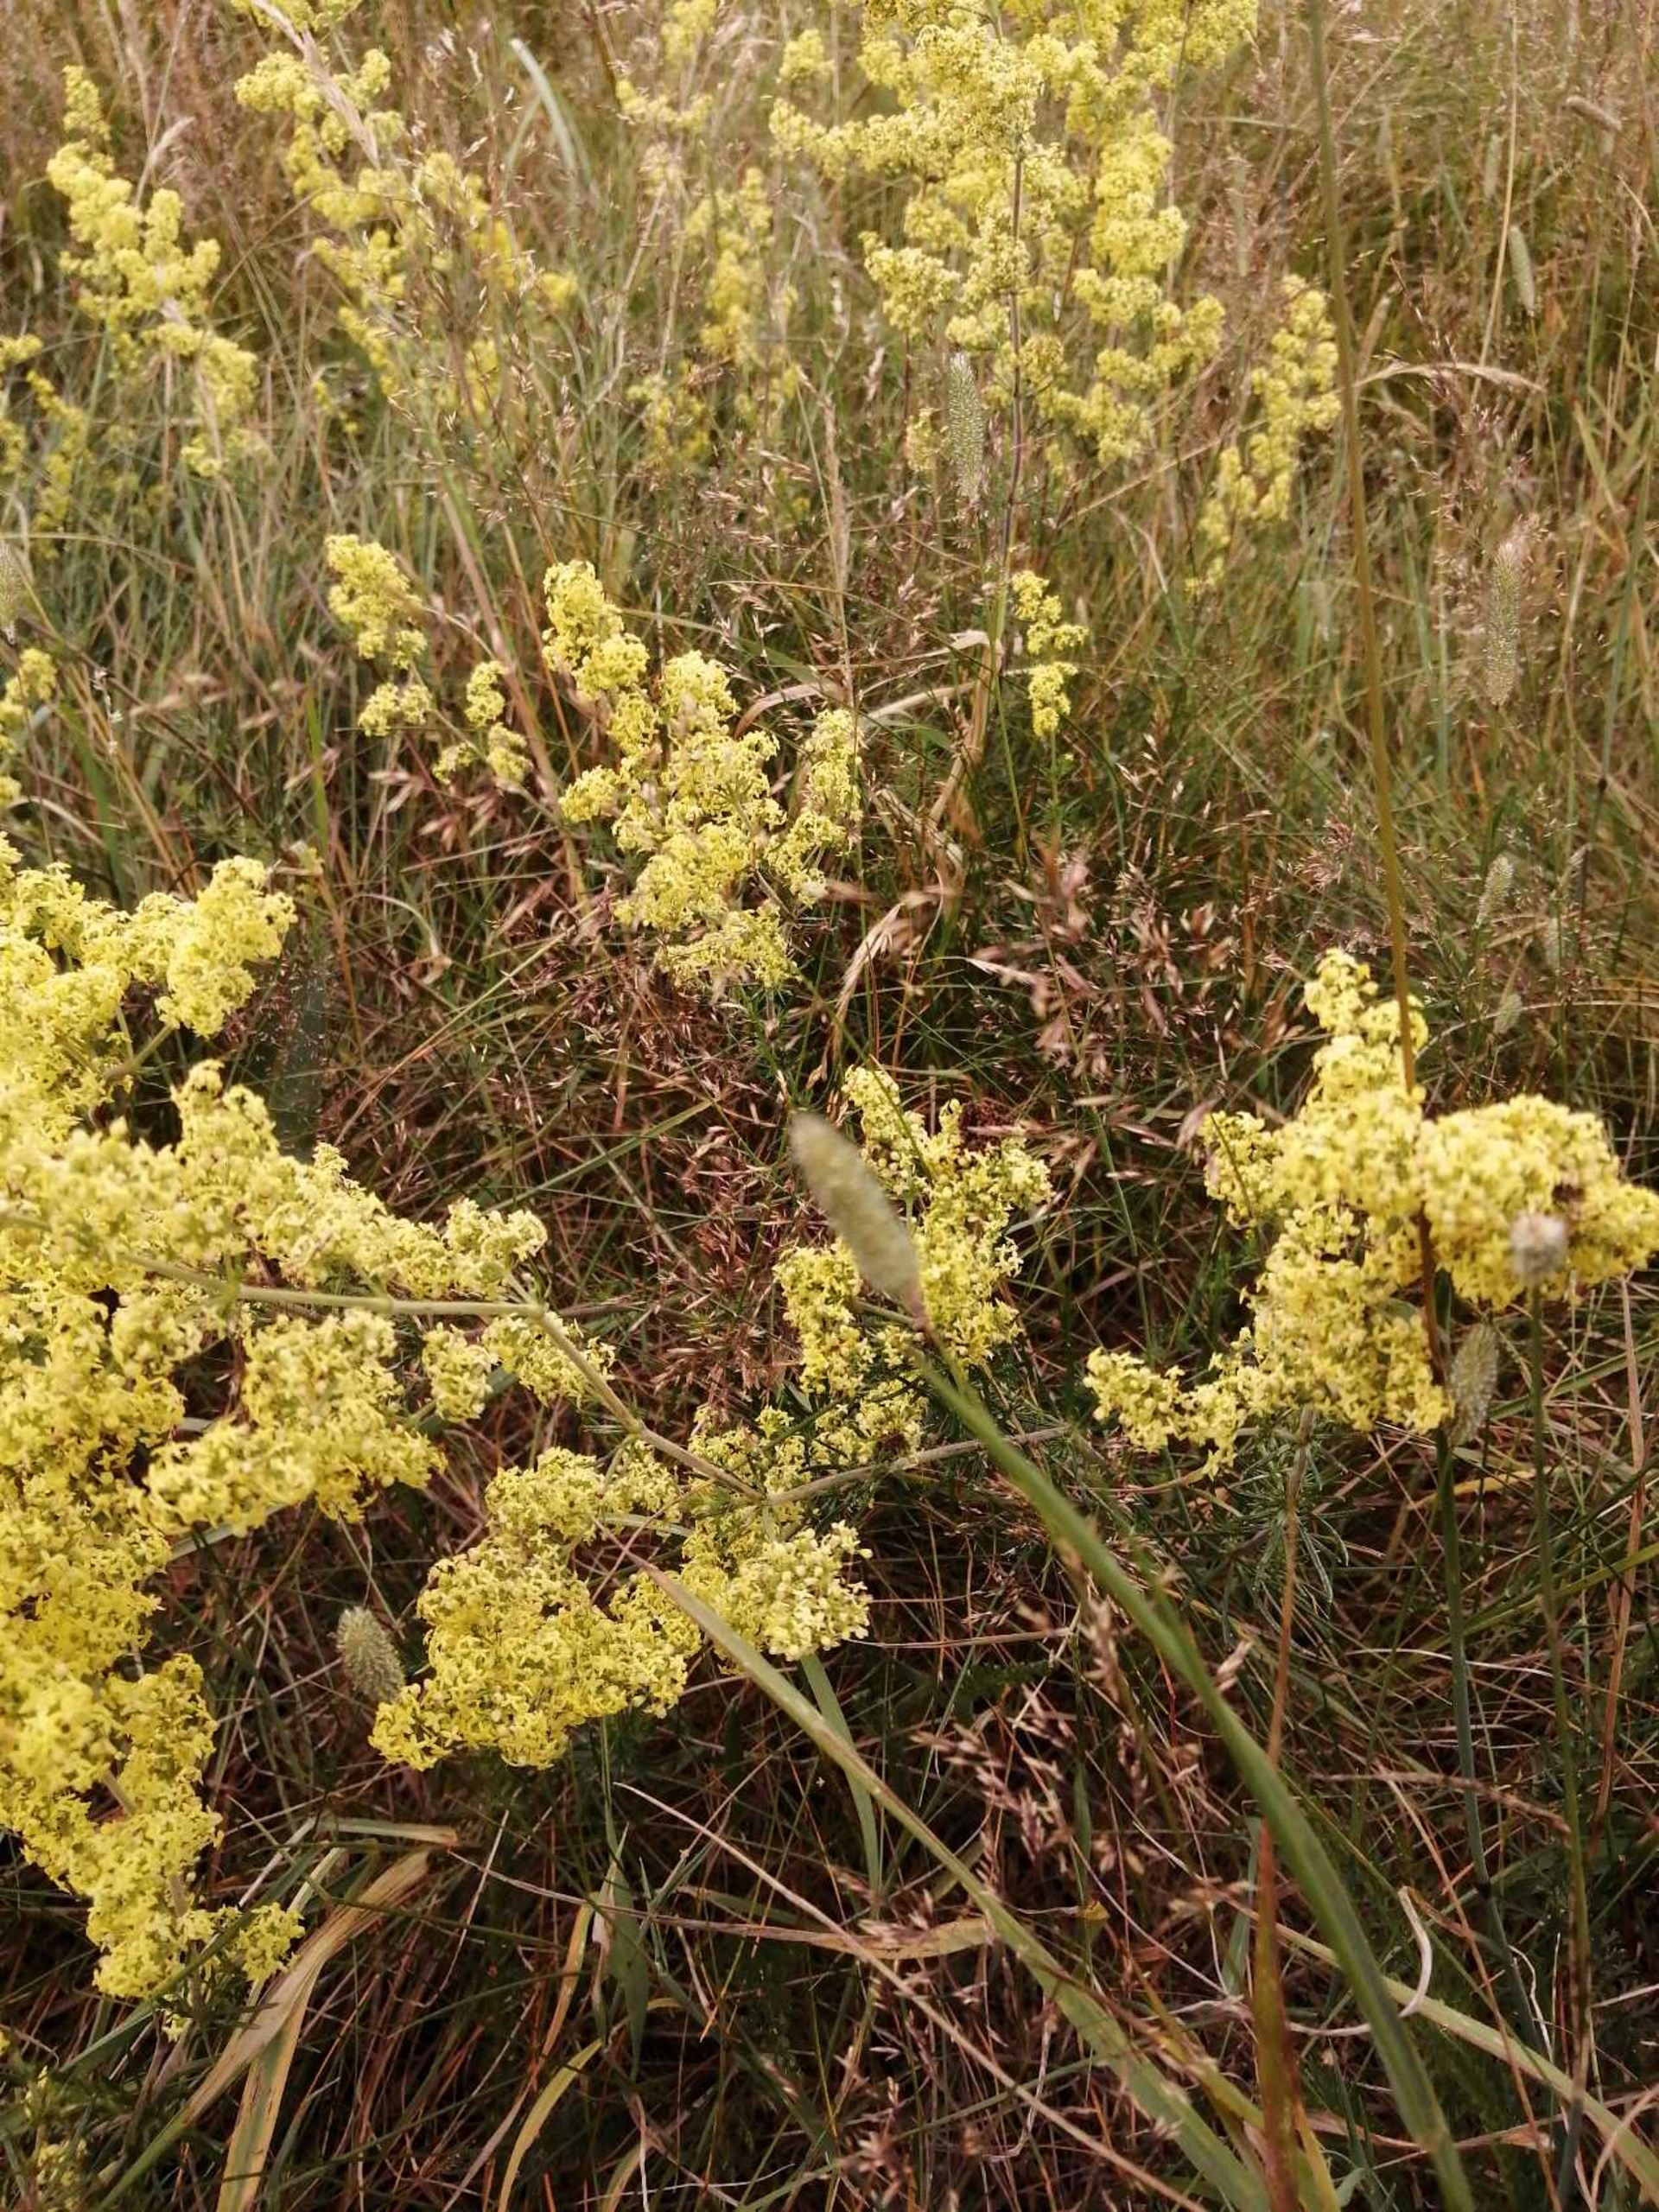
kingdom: Plantae
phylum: Tracheophyta
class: Magnoliopsida
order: Gentianales
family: Rubiaceae
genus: Galium
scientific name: Galium verum
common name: Gul snerre
